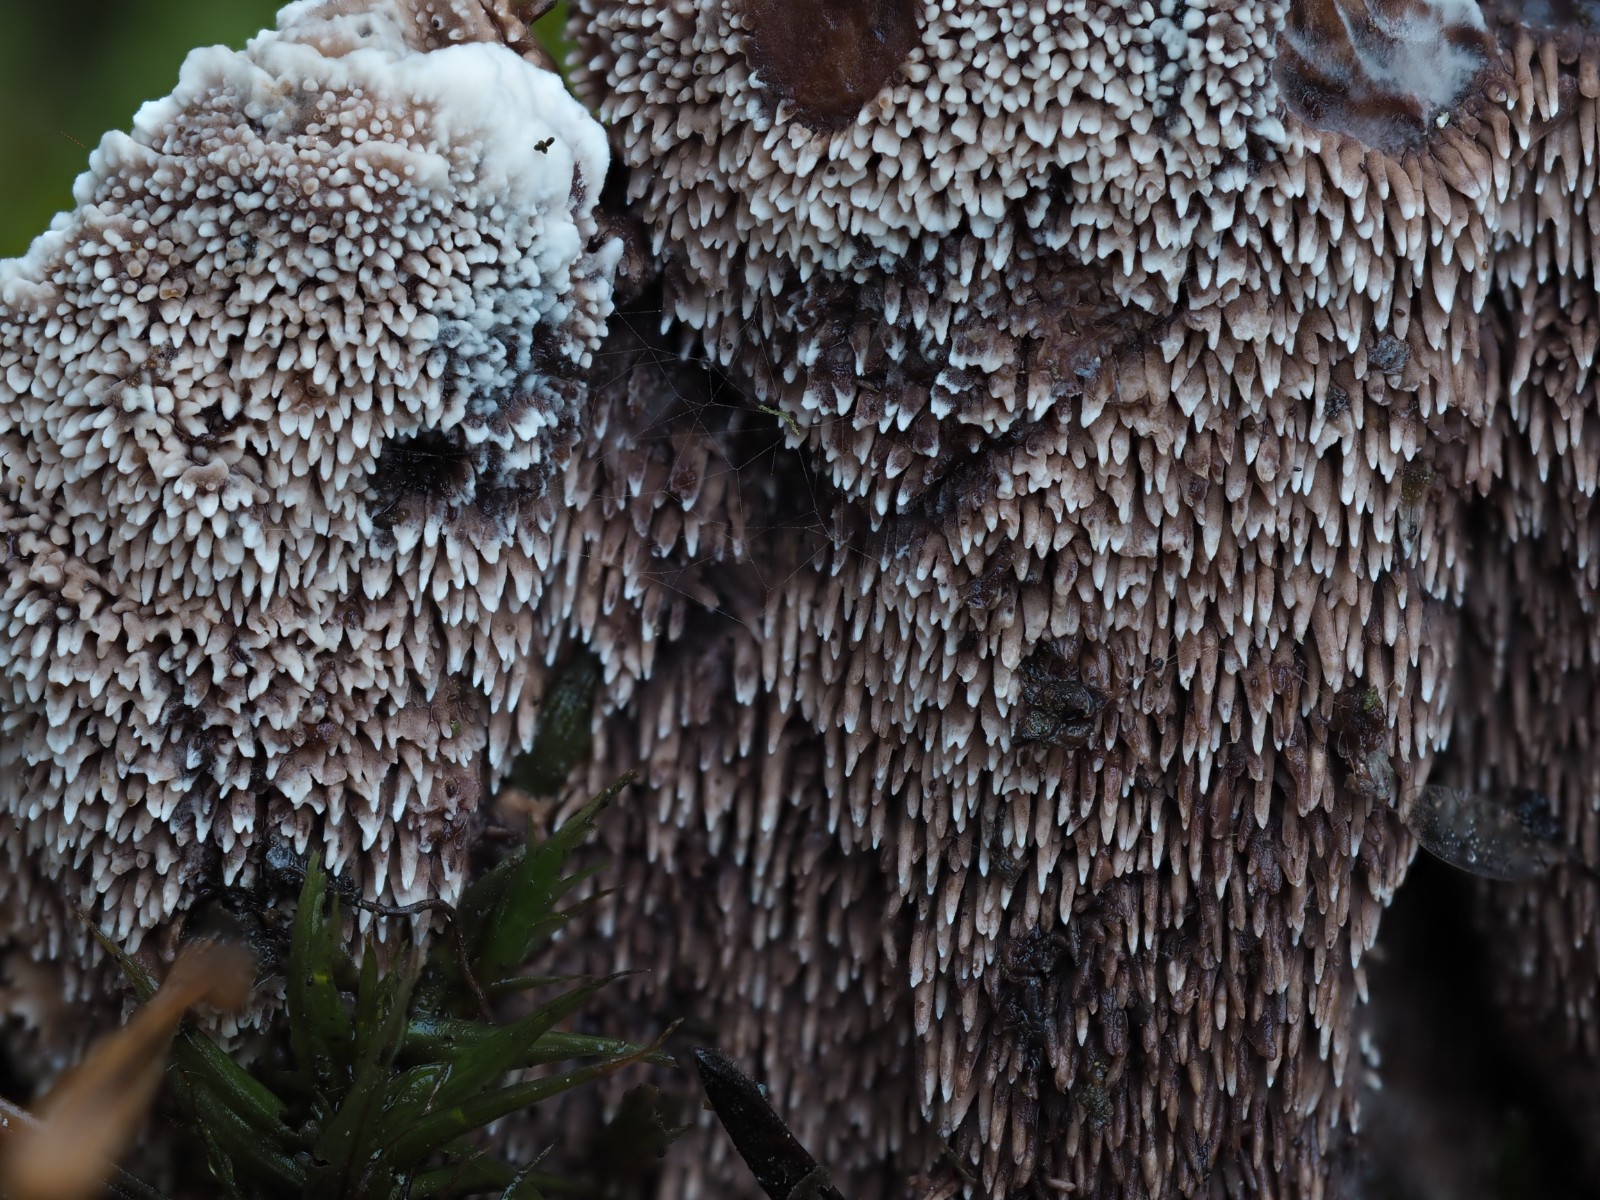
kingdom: Fungi
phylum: Basidiomycota
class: Agaricomycetes
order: Thelephorales
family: Bankeraceae
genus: Hydnellum
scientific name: Hydnellum peckii
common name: bitter korkpigsvamp
